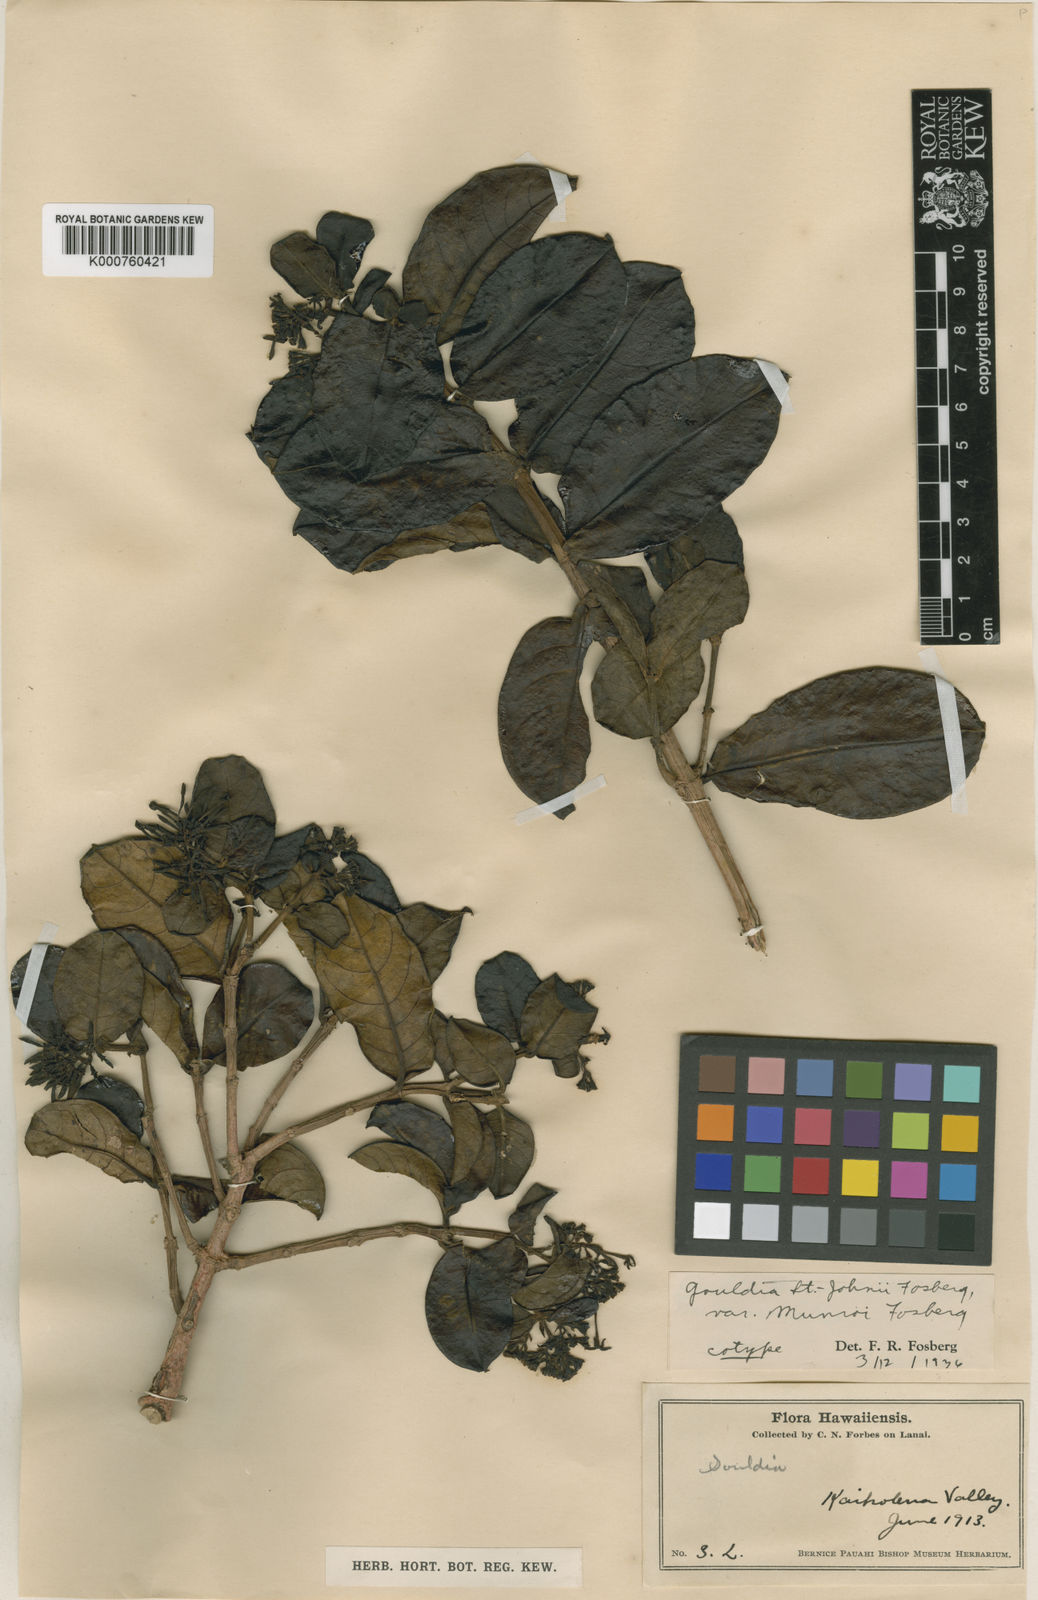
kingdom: Plantae
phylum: Tracheophyta
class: Magnoliopsida
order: Gentianales
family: Rubiaceae
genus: Kadua
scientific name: Kadua munroi
